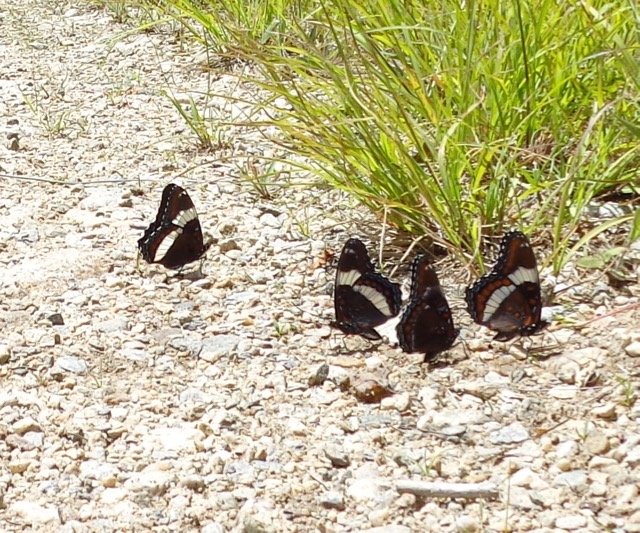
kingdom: Animalia
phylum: Arthropoda
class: Insecta
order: Lepidoptera
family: Nymphalidae
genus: Limenitis
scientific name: Limenitis
